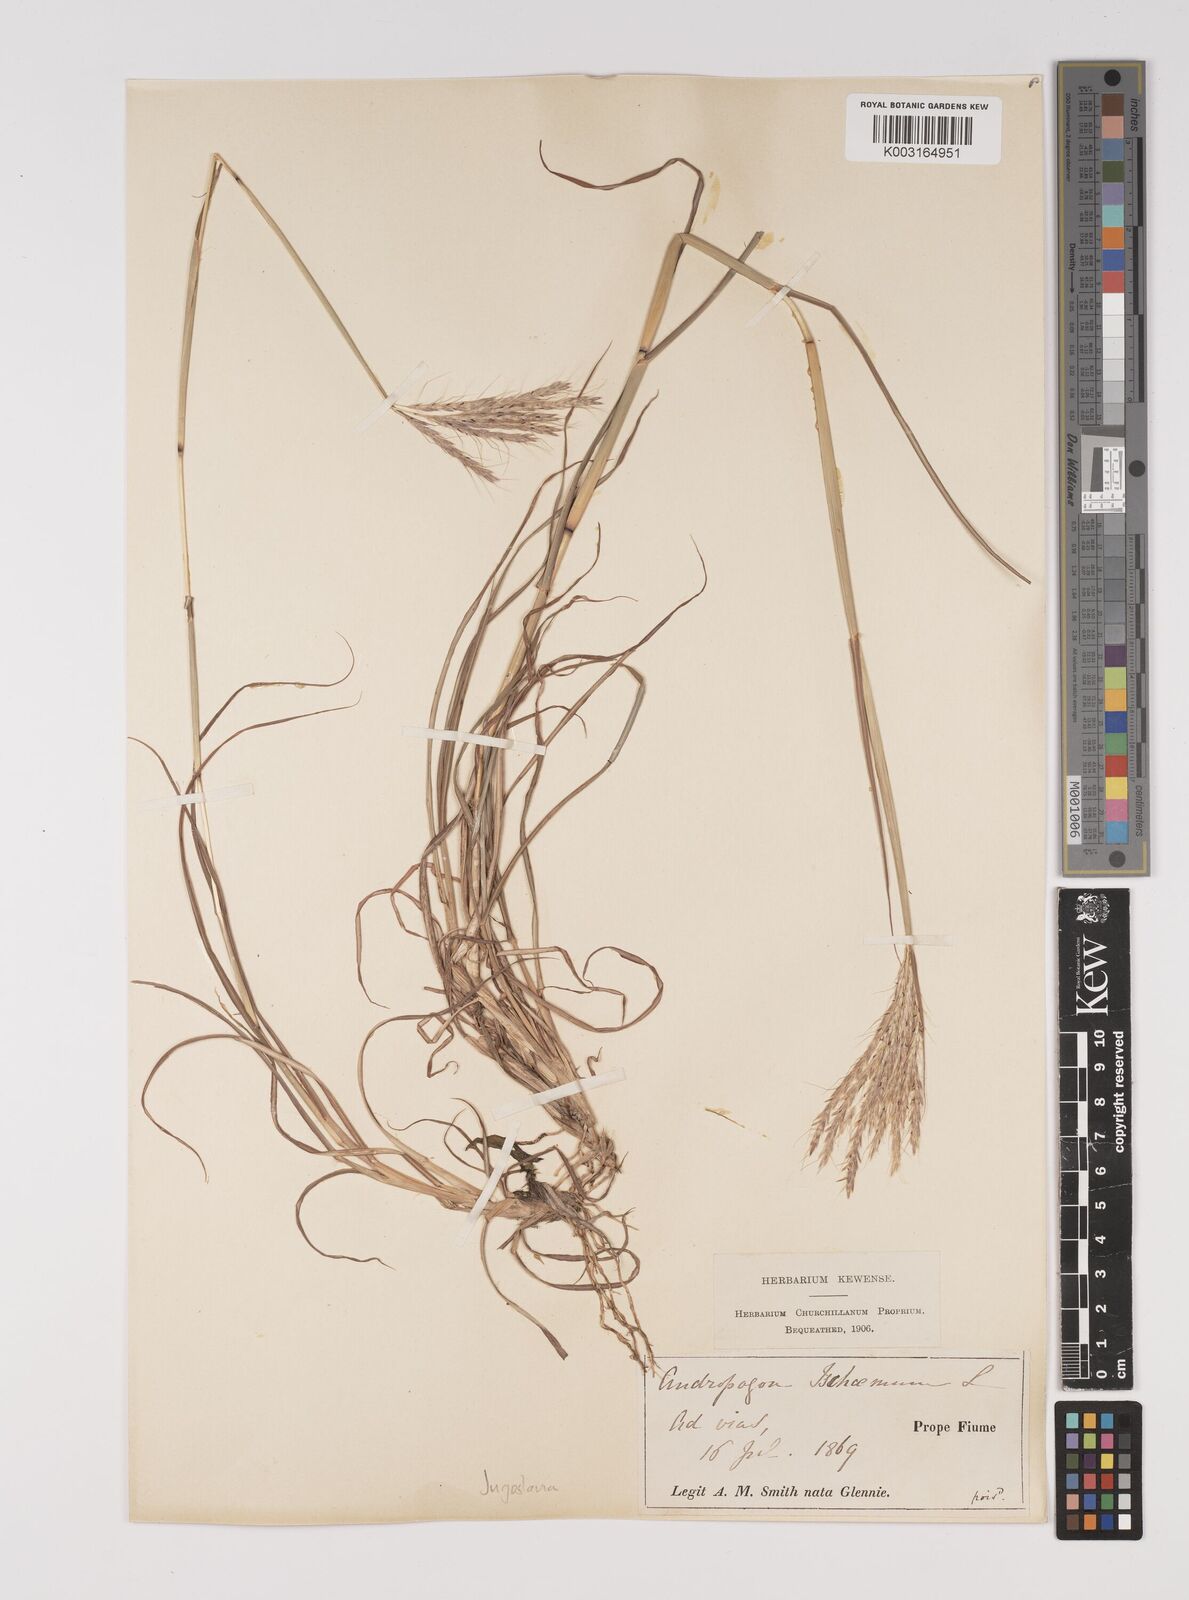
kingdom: Plantae
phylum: Tracheophyta
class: Liliopsida
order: Poales
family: Poaceae
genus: Bothriochloa
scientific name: Bothriochloa ischaemum
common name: Yellow bluestem
